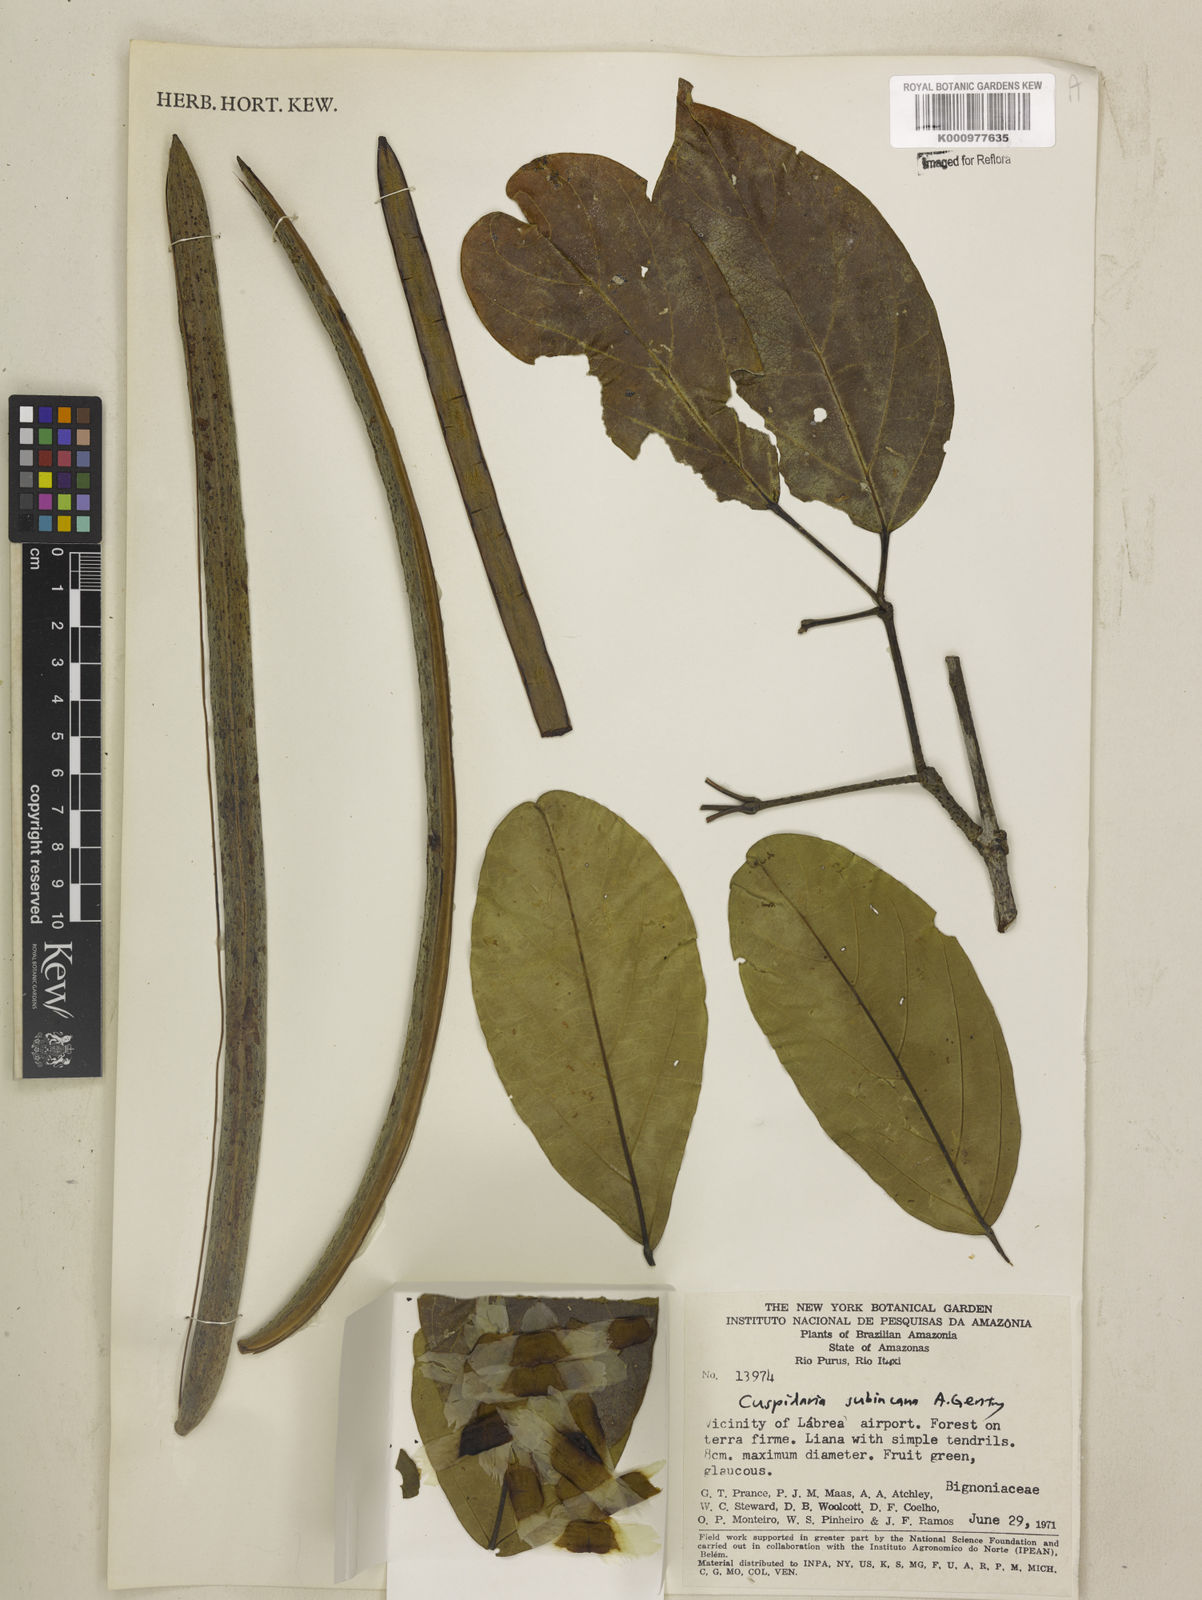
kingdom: Plantae
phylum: Tracheophyta
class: Magnoliopsida
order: Lamiales
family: Bignoniaceae
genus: Cuspidaria
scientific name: Cuspidaria subincana
